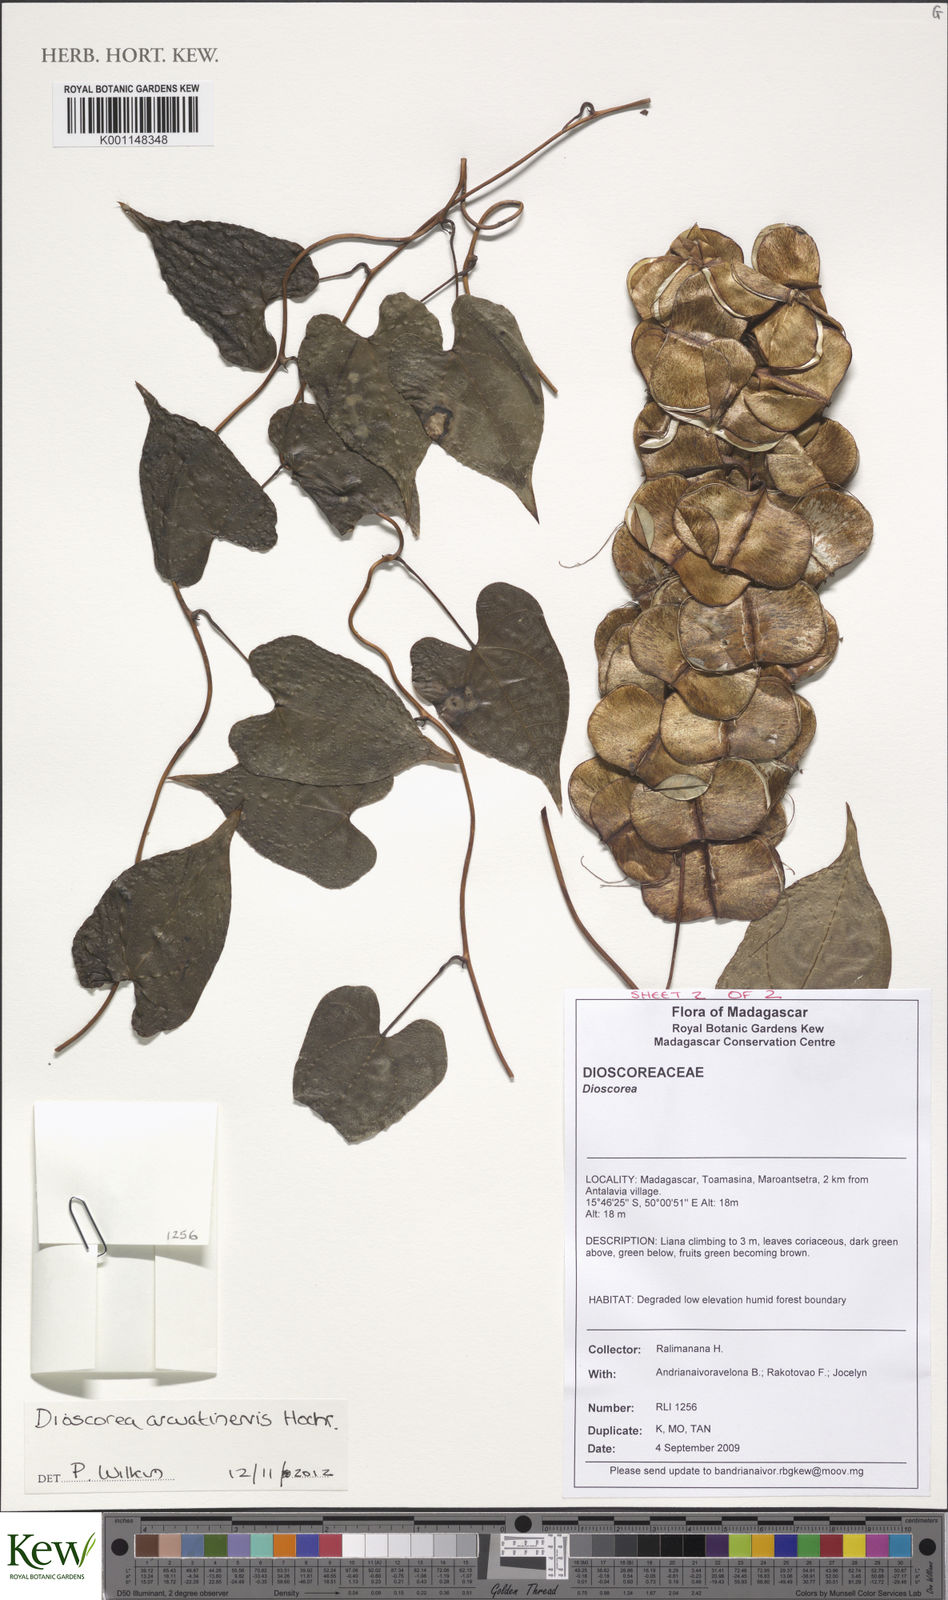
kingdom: Plantae
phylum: Tracheophyta
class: Liliopsida
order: Dioscoreales
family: Dioscoreaceae
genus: Dioscorea
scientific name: Dioscorea arcuatinervis
